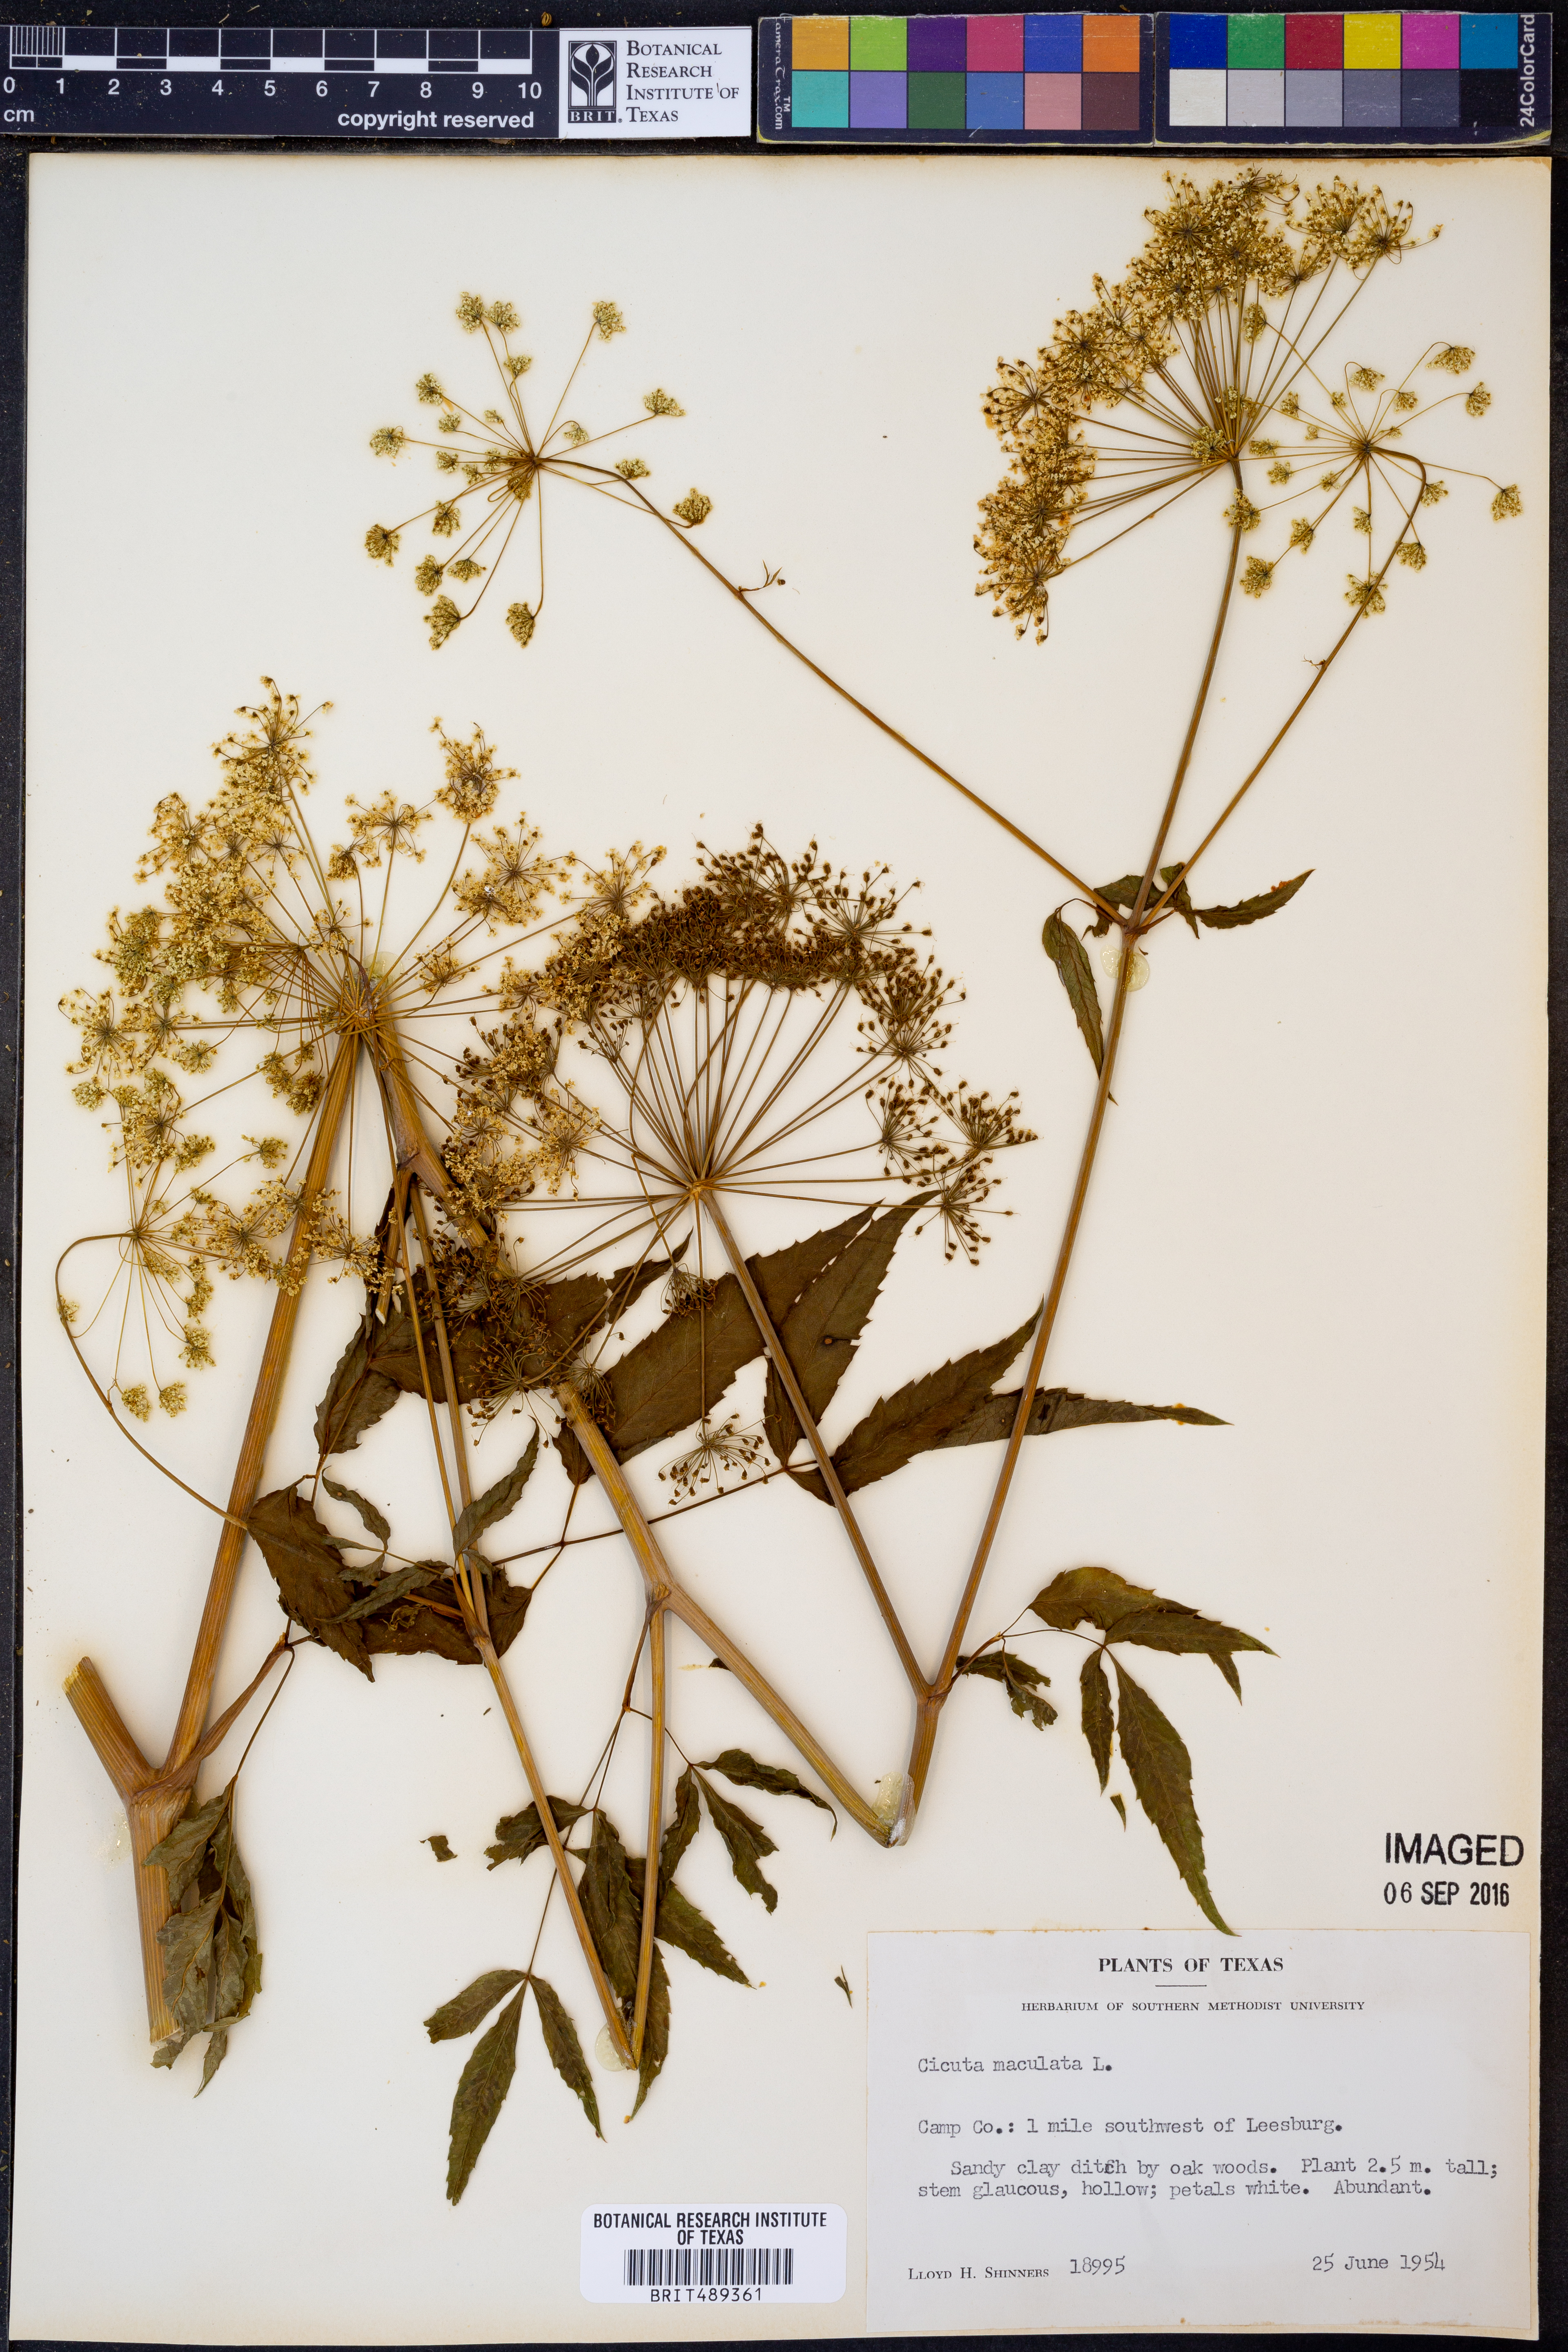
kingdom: Plantae
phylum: Tracheophyta
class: Magnoliopsida
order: Apiales
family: Apiaceae
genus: Cicuta
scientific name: Cicuta maculata
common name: Spotted cowbane
